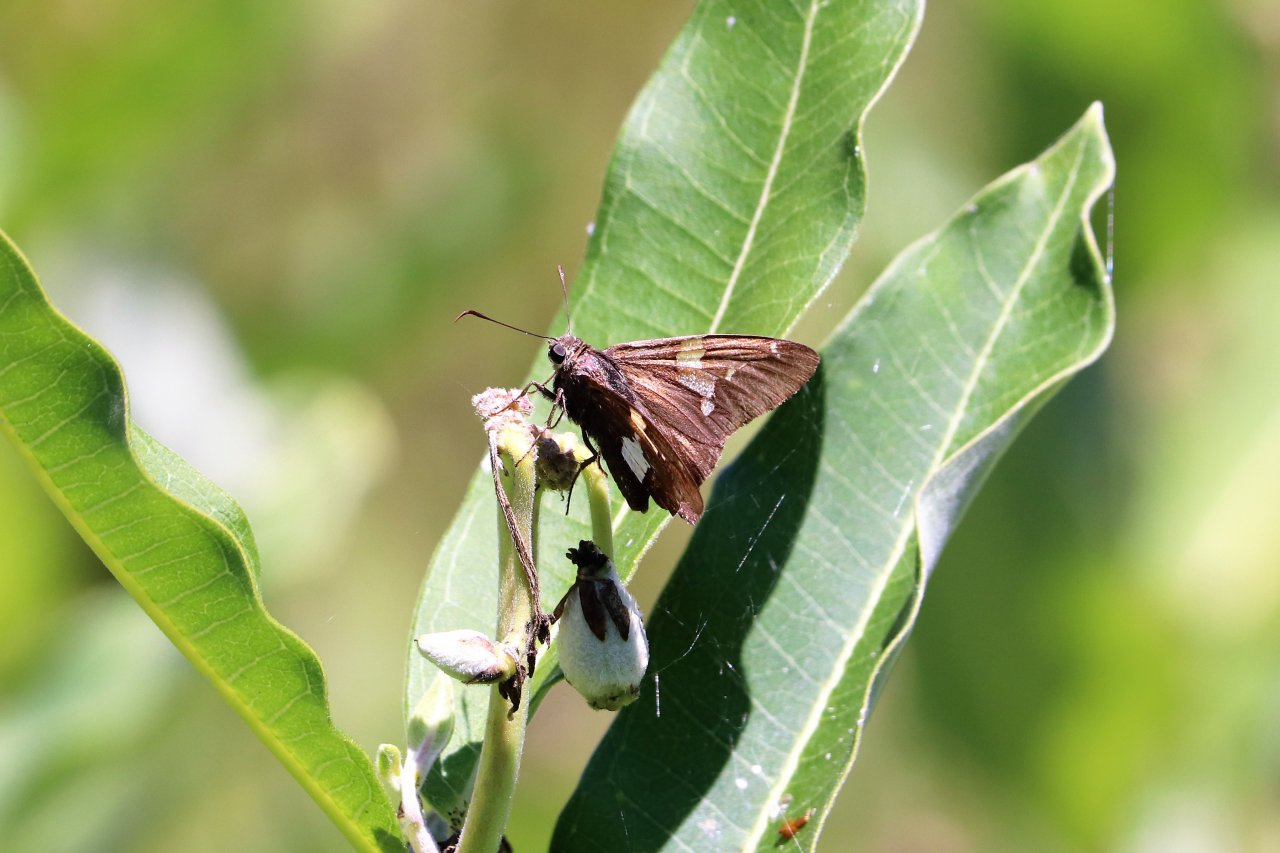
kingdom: Animalia
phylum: Arthropoda
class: Insecta
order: Lepidoptera
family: Hesperiidae
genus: Epargyreus
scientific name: Epargyreus clarus
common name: Silver-spotted Skipper
